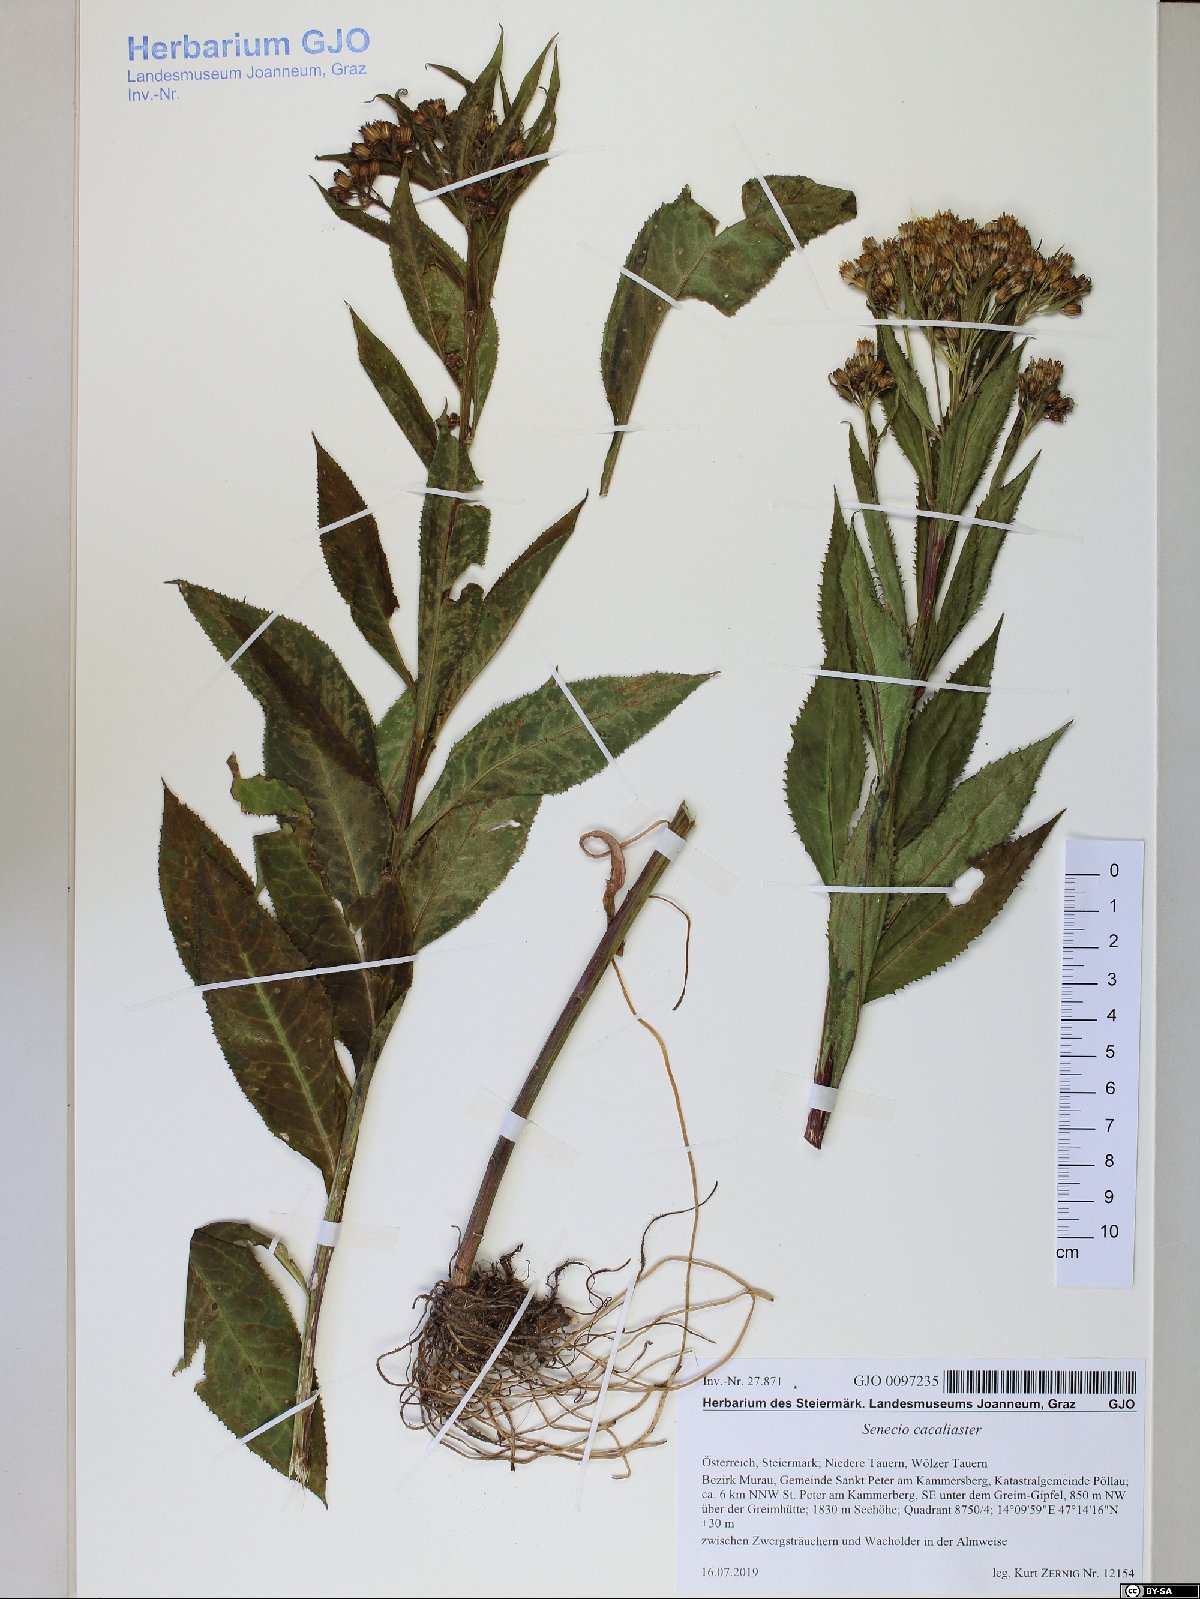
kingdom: Plantae
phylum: Tracheophyta
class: Magnoliopsida
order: Asterales
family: Asteraceae
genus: Senecio
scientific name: Senecio cacaliaster
